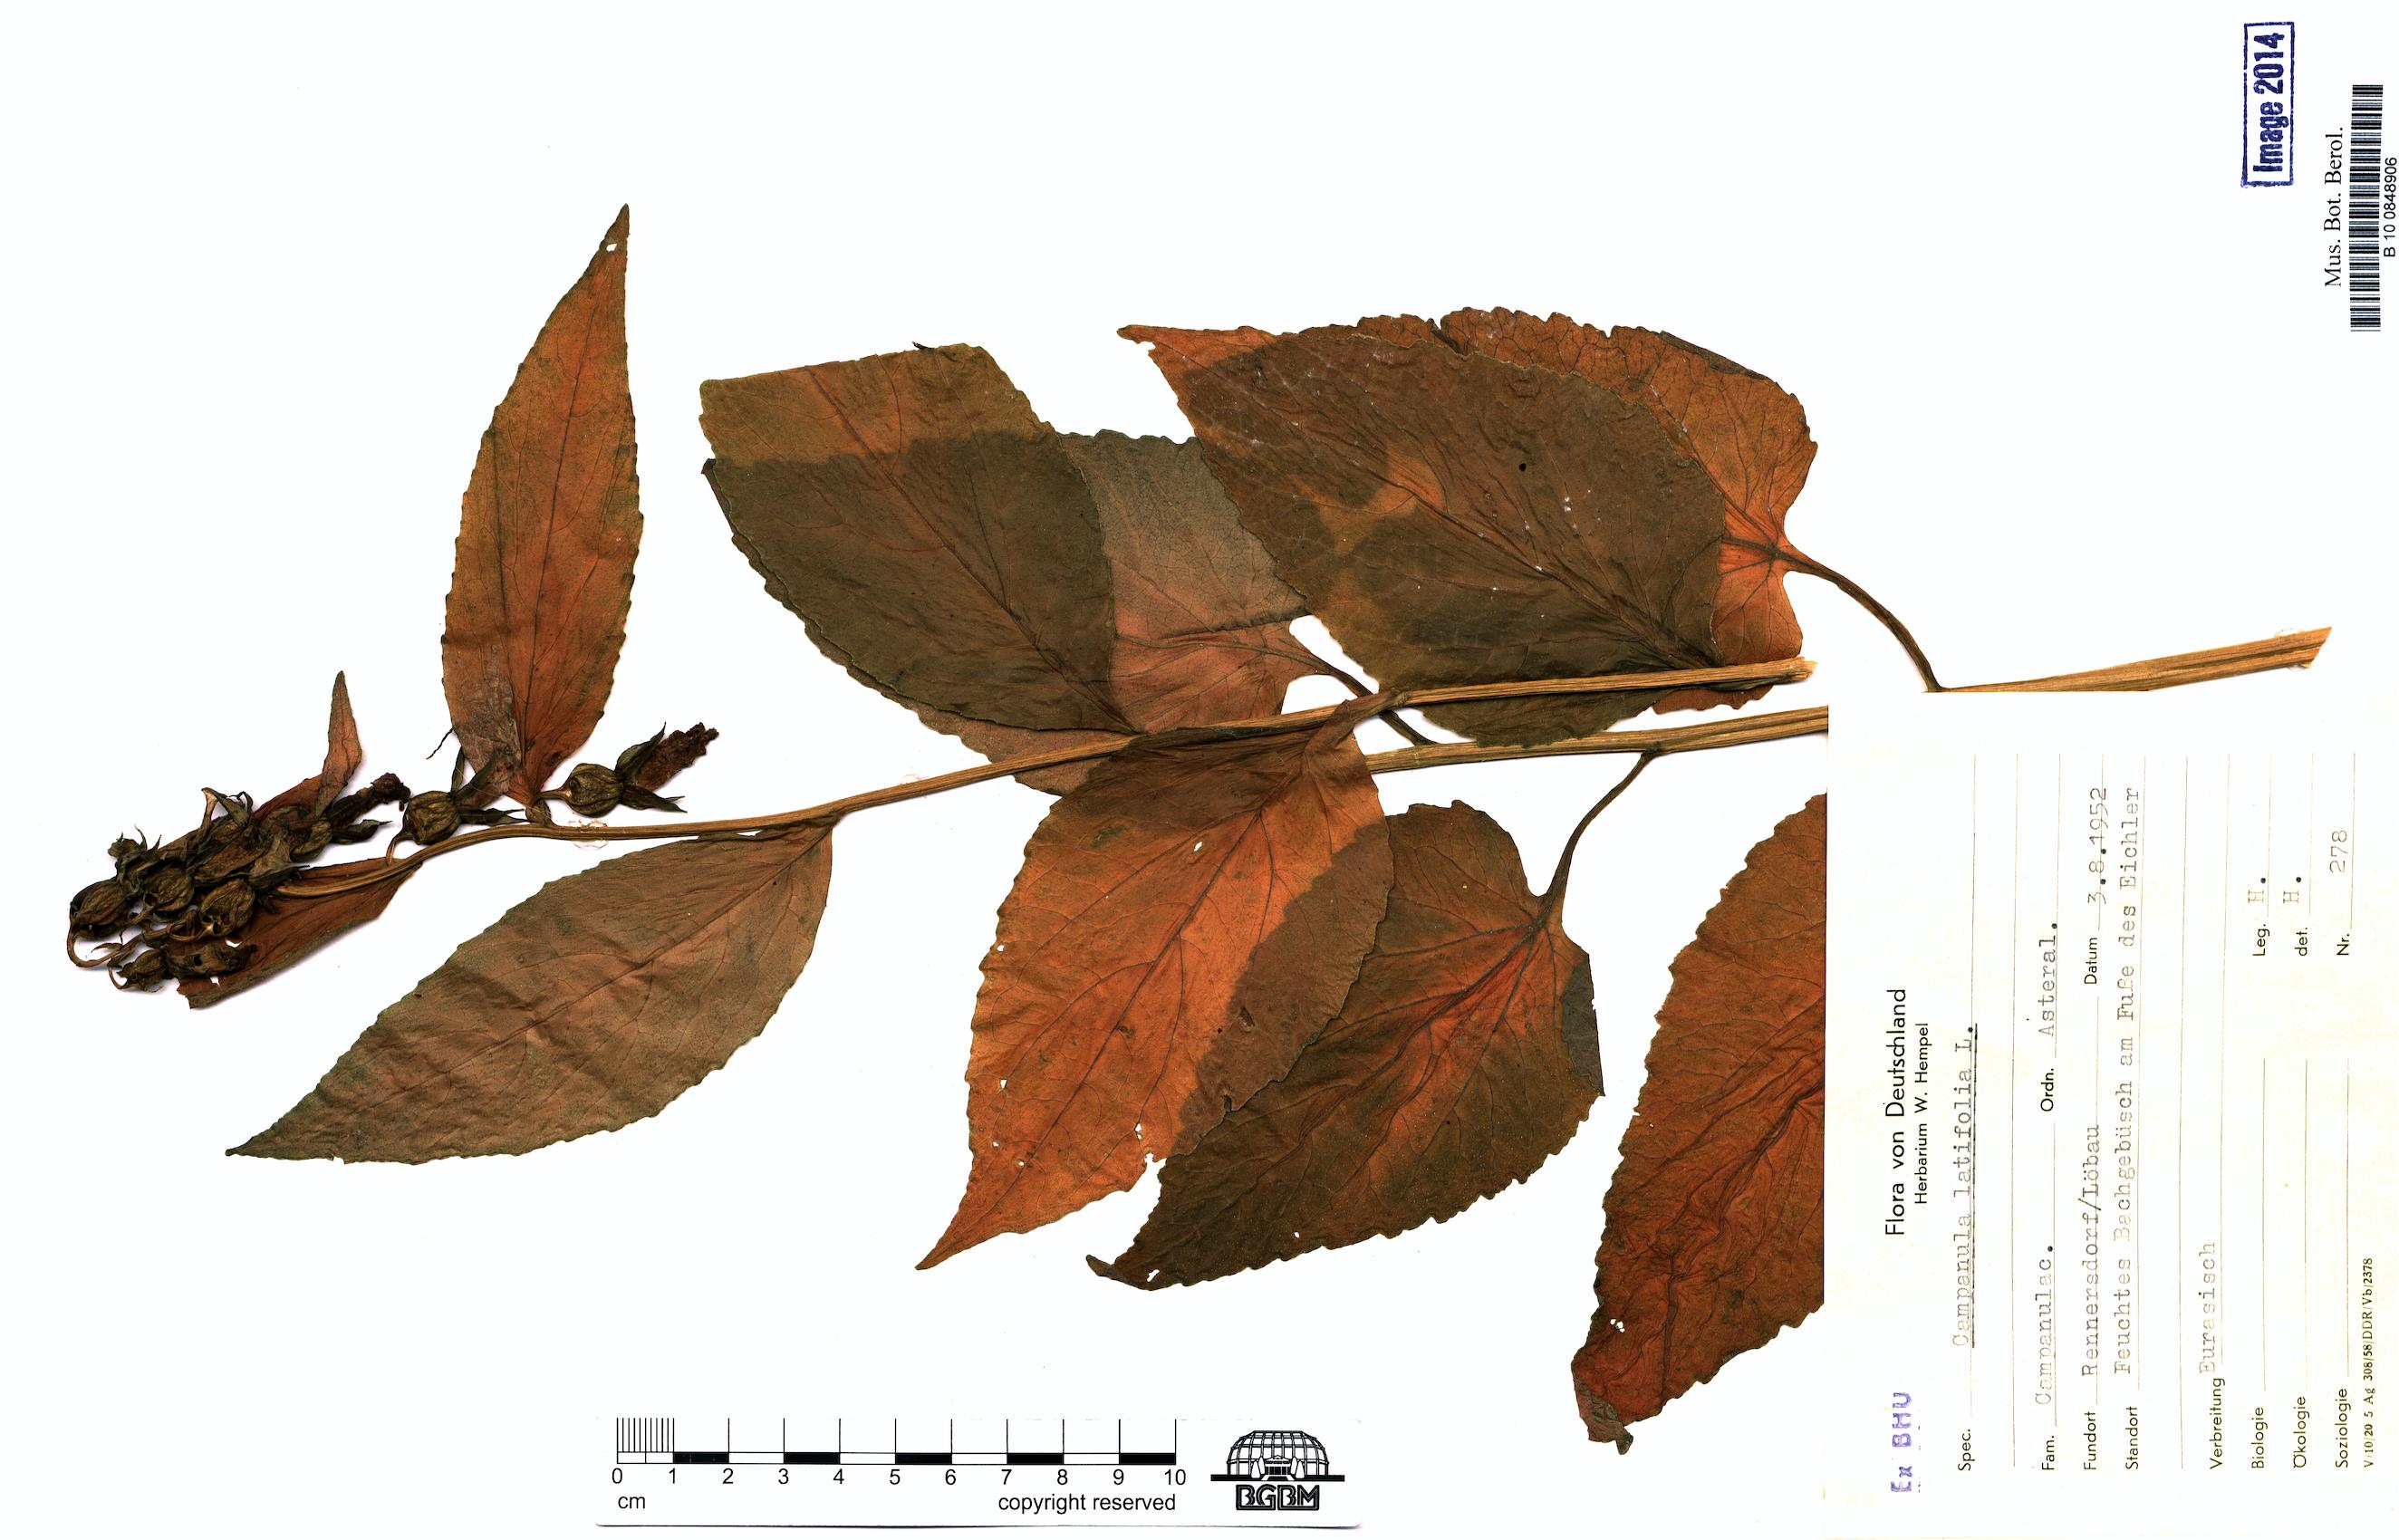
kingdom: Plantae
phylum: Tracheophyta
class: Magnoliopsida
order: Asterales
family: Campanulaceae
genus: Campanula
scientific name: Campanula latifolia
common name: Giant bellflower
